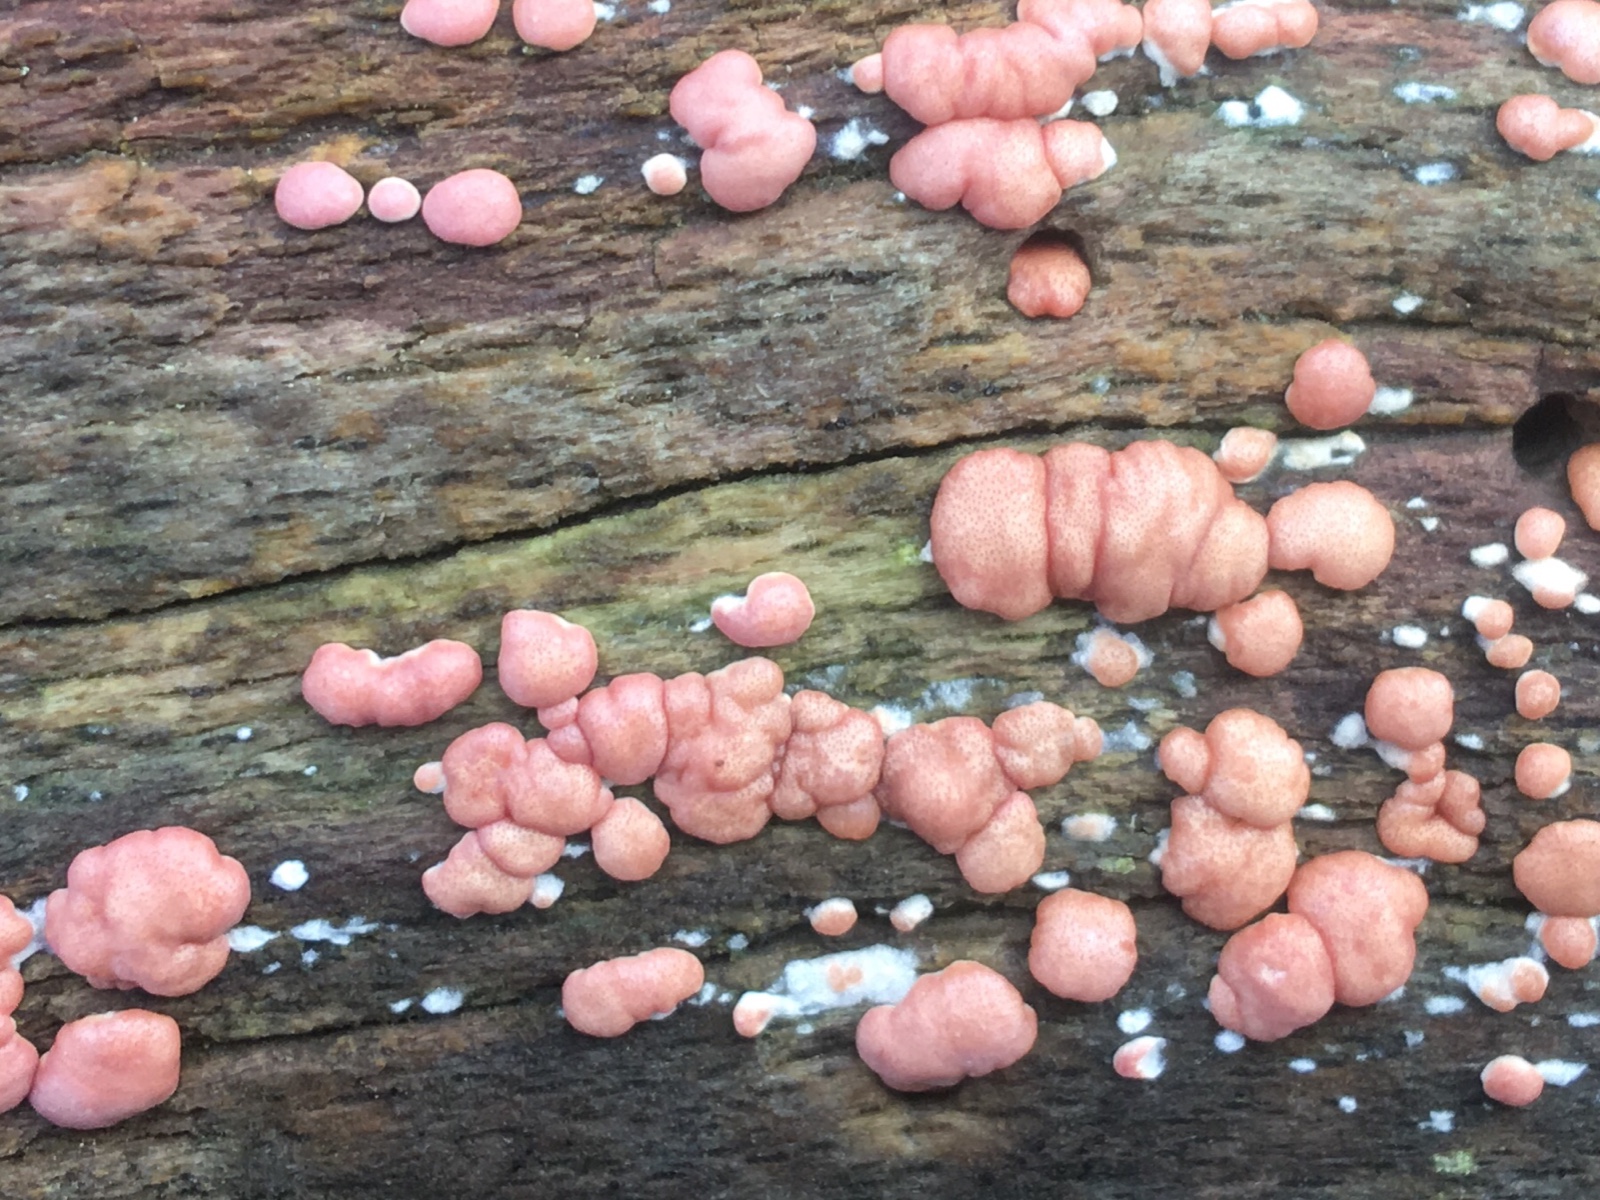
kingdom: Fungi
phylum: Ascomycota
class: Sordariomycetes
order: Hypocreales
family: Hypocreaceae
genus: Trichoderma
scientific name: Trichoderma europaeum
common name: rosabrun kødkerne
